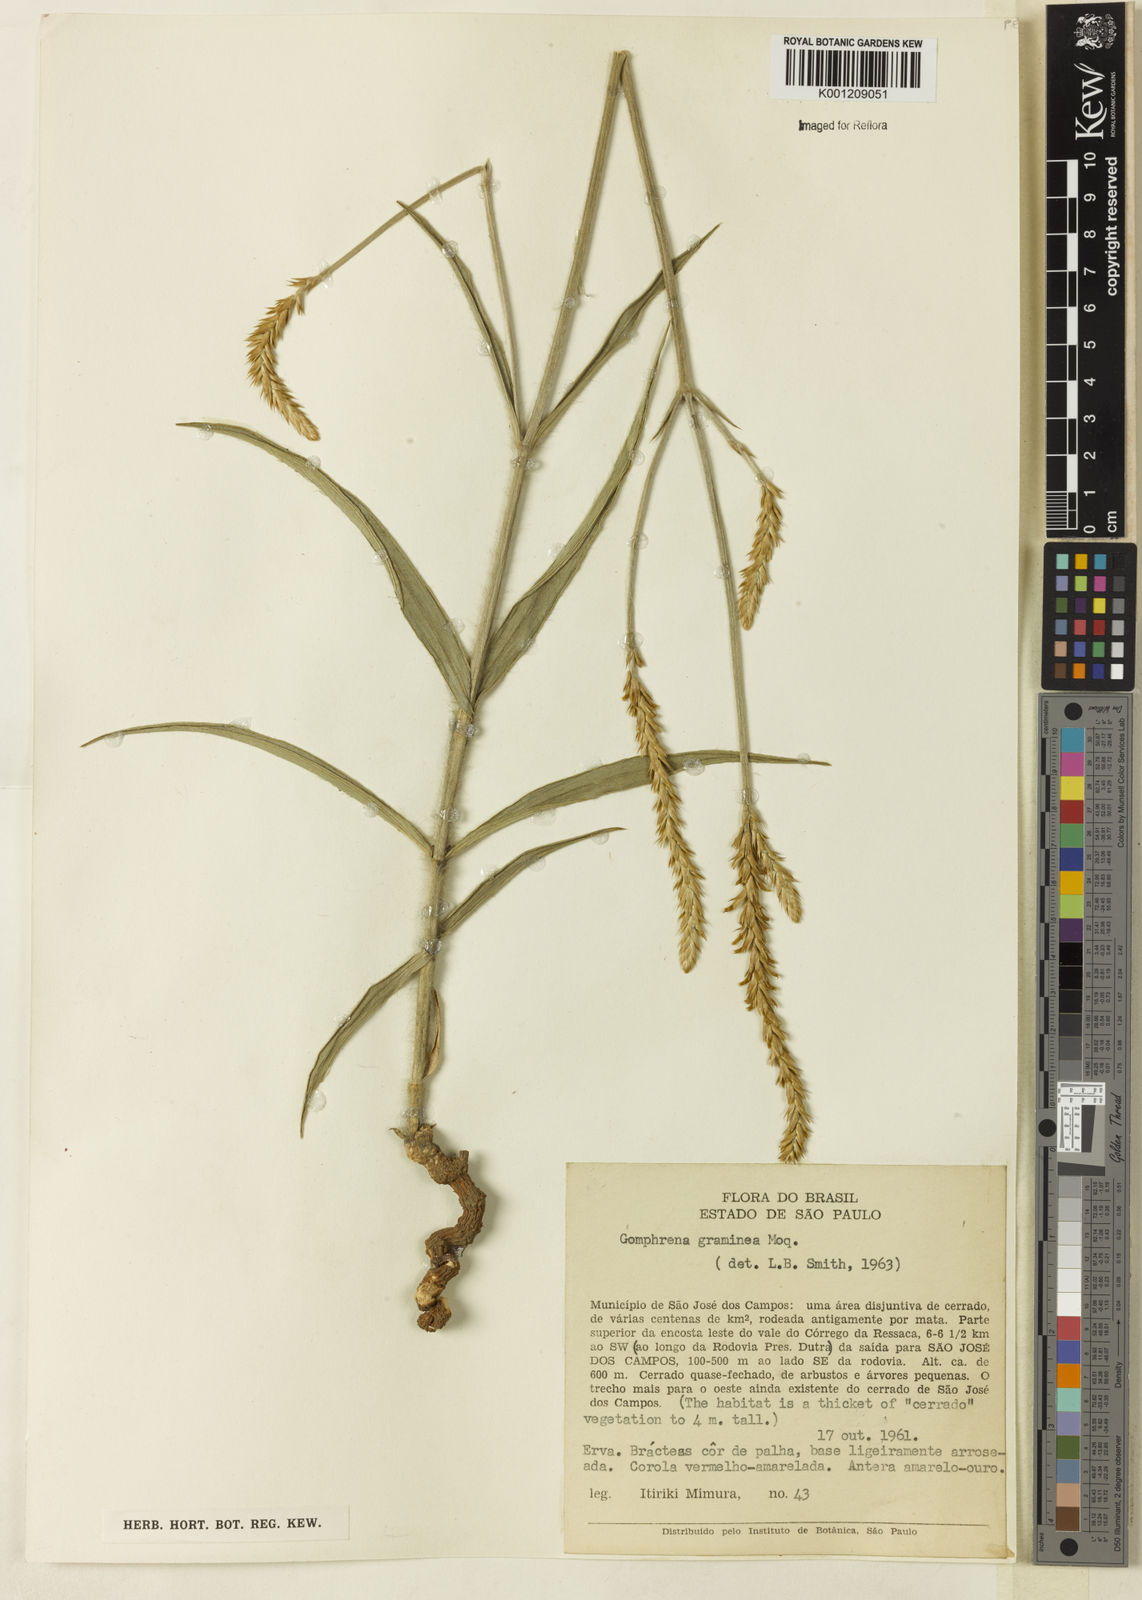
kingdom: Plantae
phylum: Tracheophyta
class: Magnoliopsida
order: Caryophyllales
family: Amaranthaceae
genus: Gomphrena
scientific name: Gomphrena graminea
